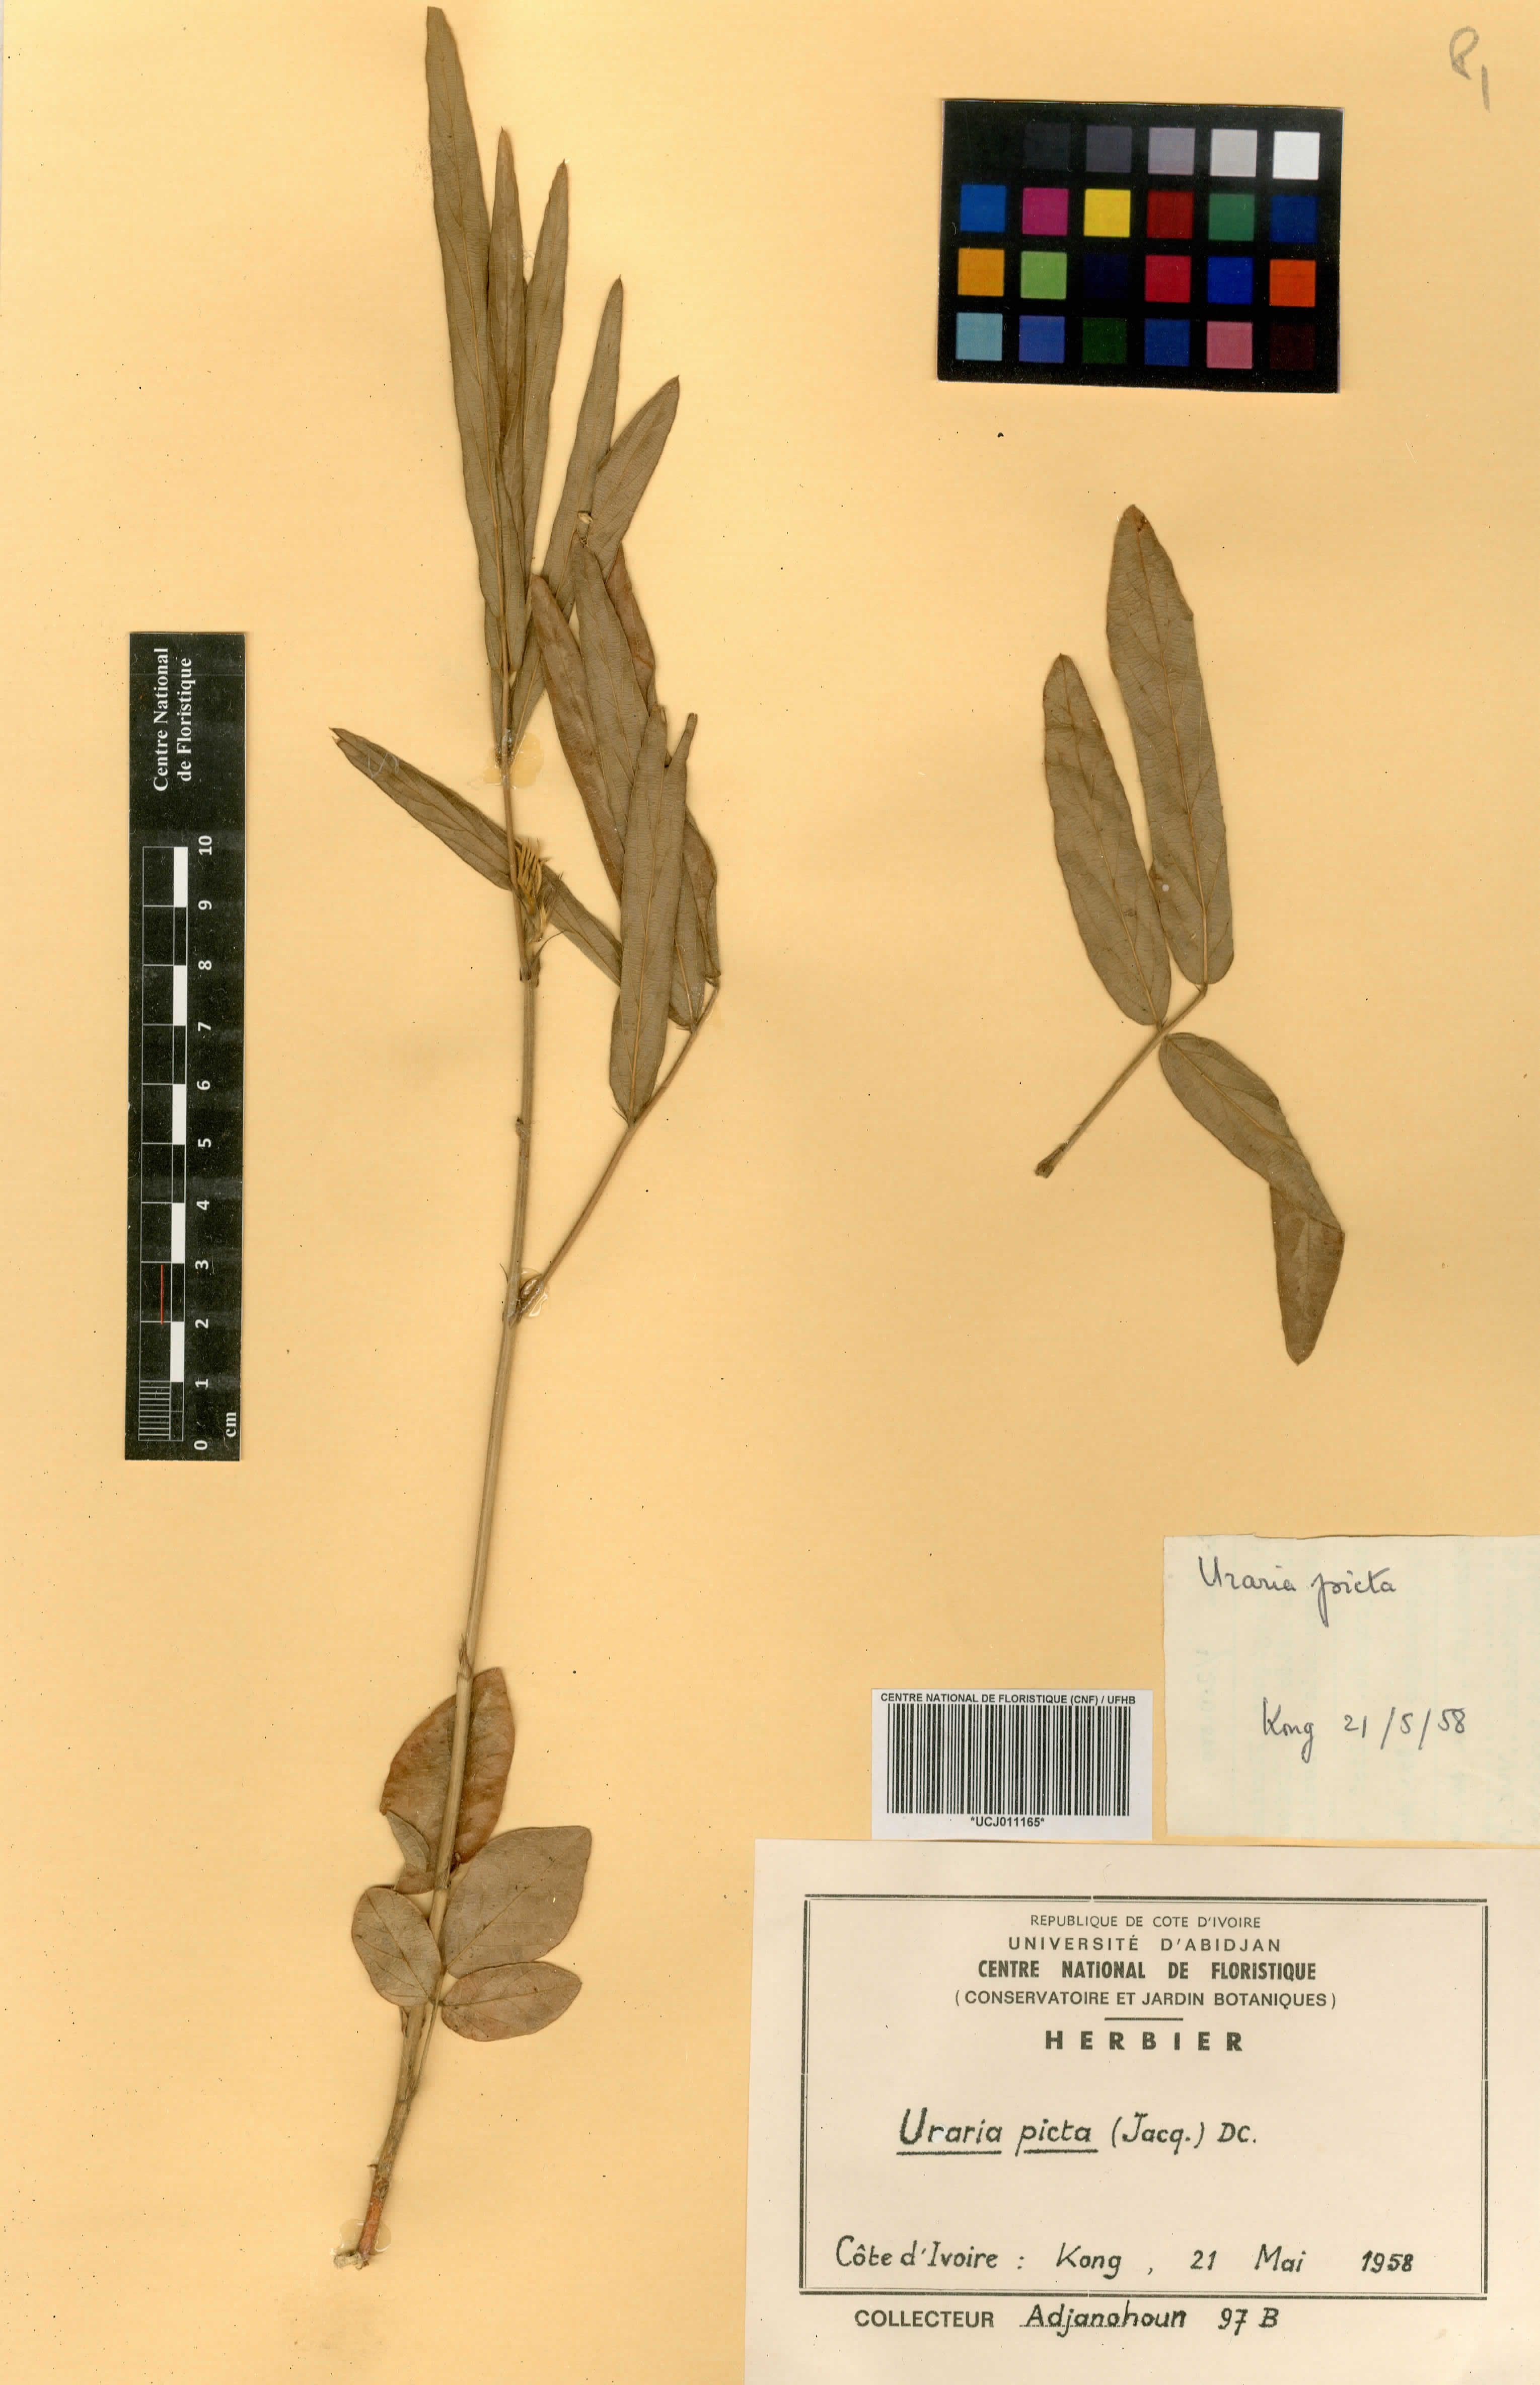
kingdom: Plantae
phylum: Tracheophyta
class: Magnoliopsida
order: Fabales
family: Fabaceae
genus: Uraria
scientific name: Uraria picta
